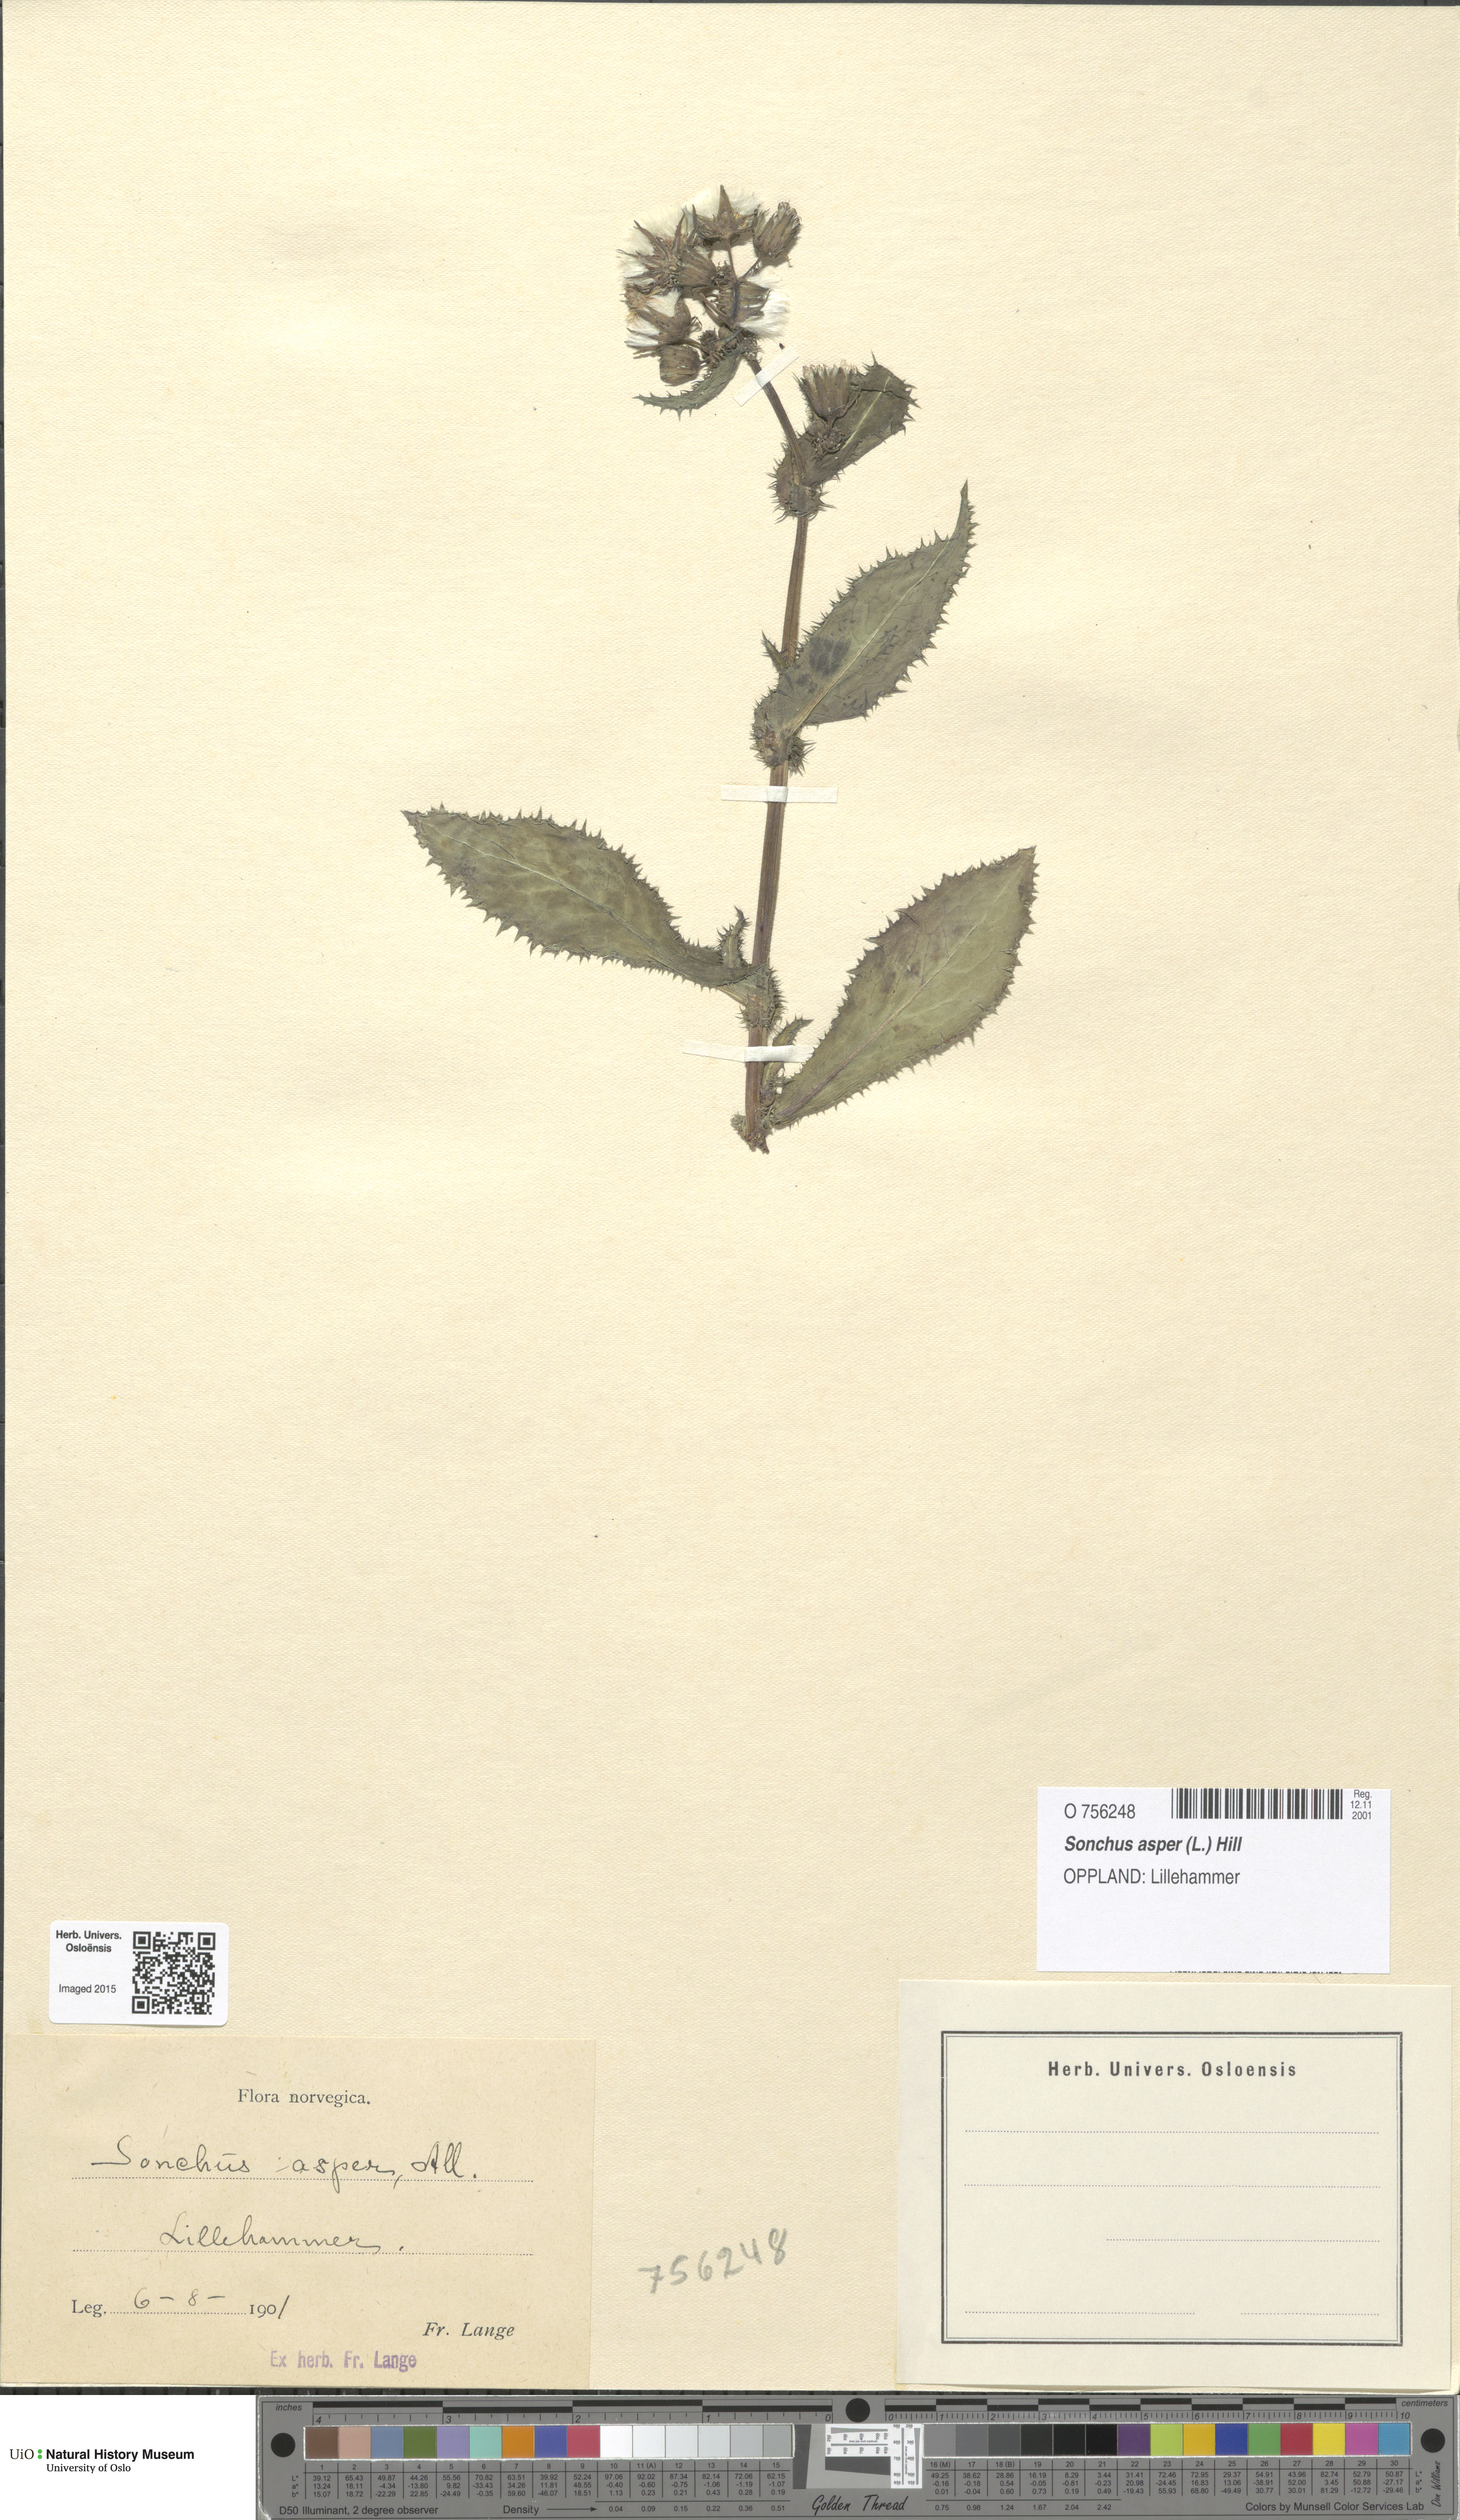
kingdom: Plantae
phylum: Tracheophyta
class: Magnoliopsida
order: Asterales
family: Asteraceae
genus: Sonchus
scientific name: Sonchus asper
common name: Prickly sow-thistle
